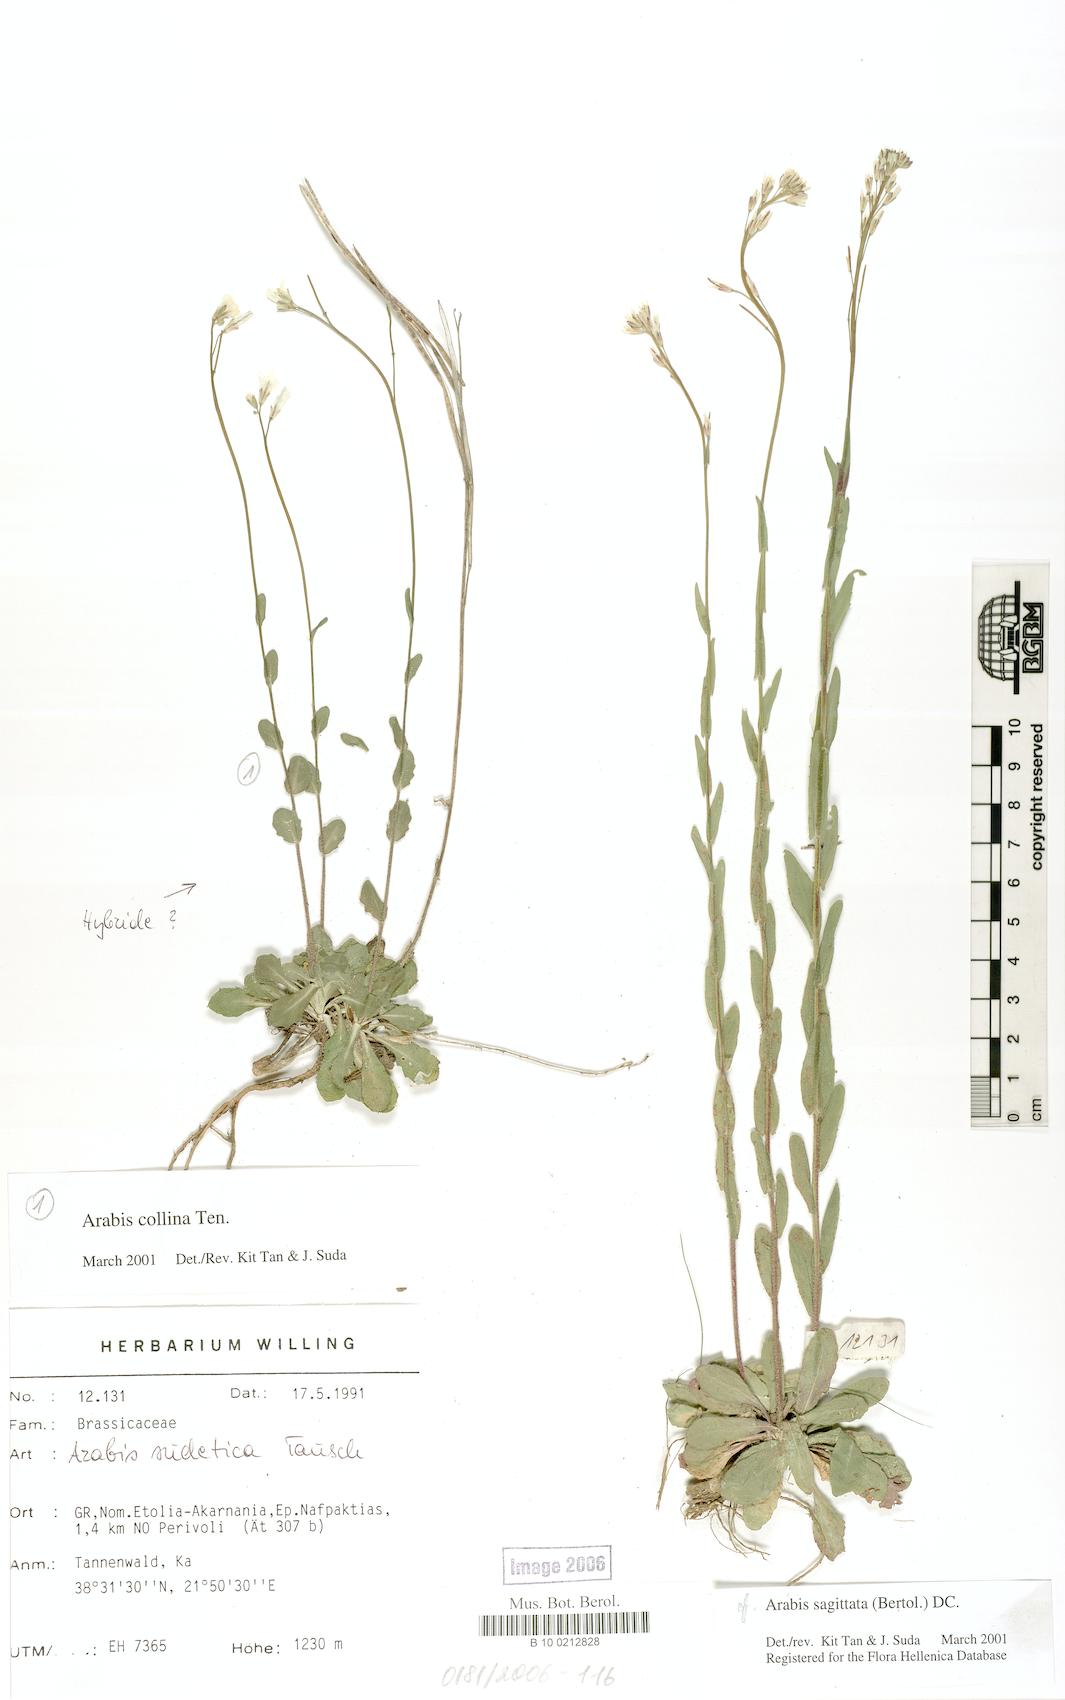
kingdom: Plantae
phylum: Tracheophyta
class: Magnoliopsida
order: Brassicales
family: Brassicaceae
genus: Arabis
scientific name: Arabis sudetica
